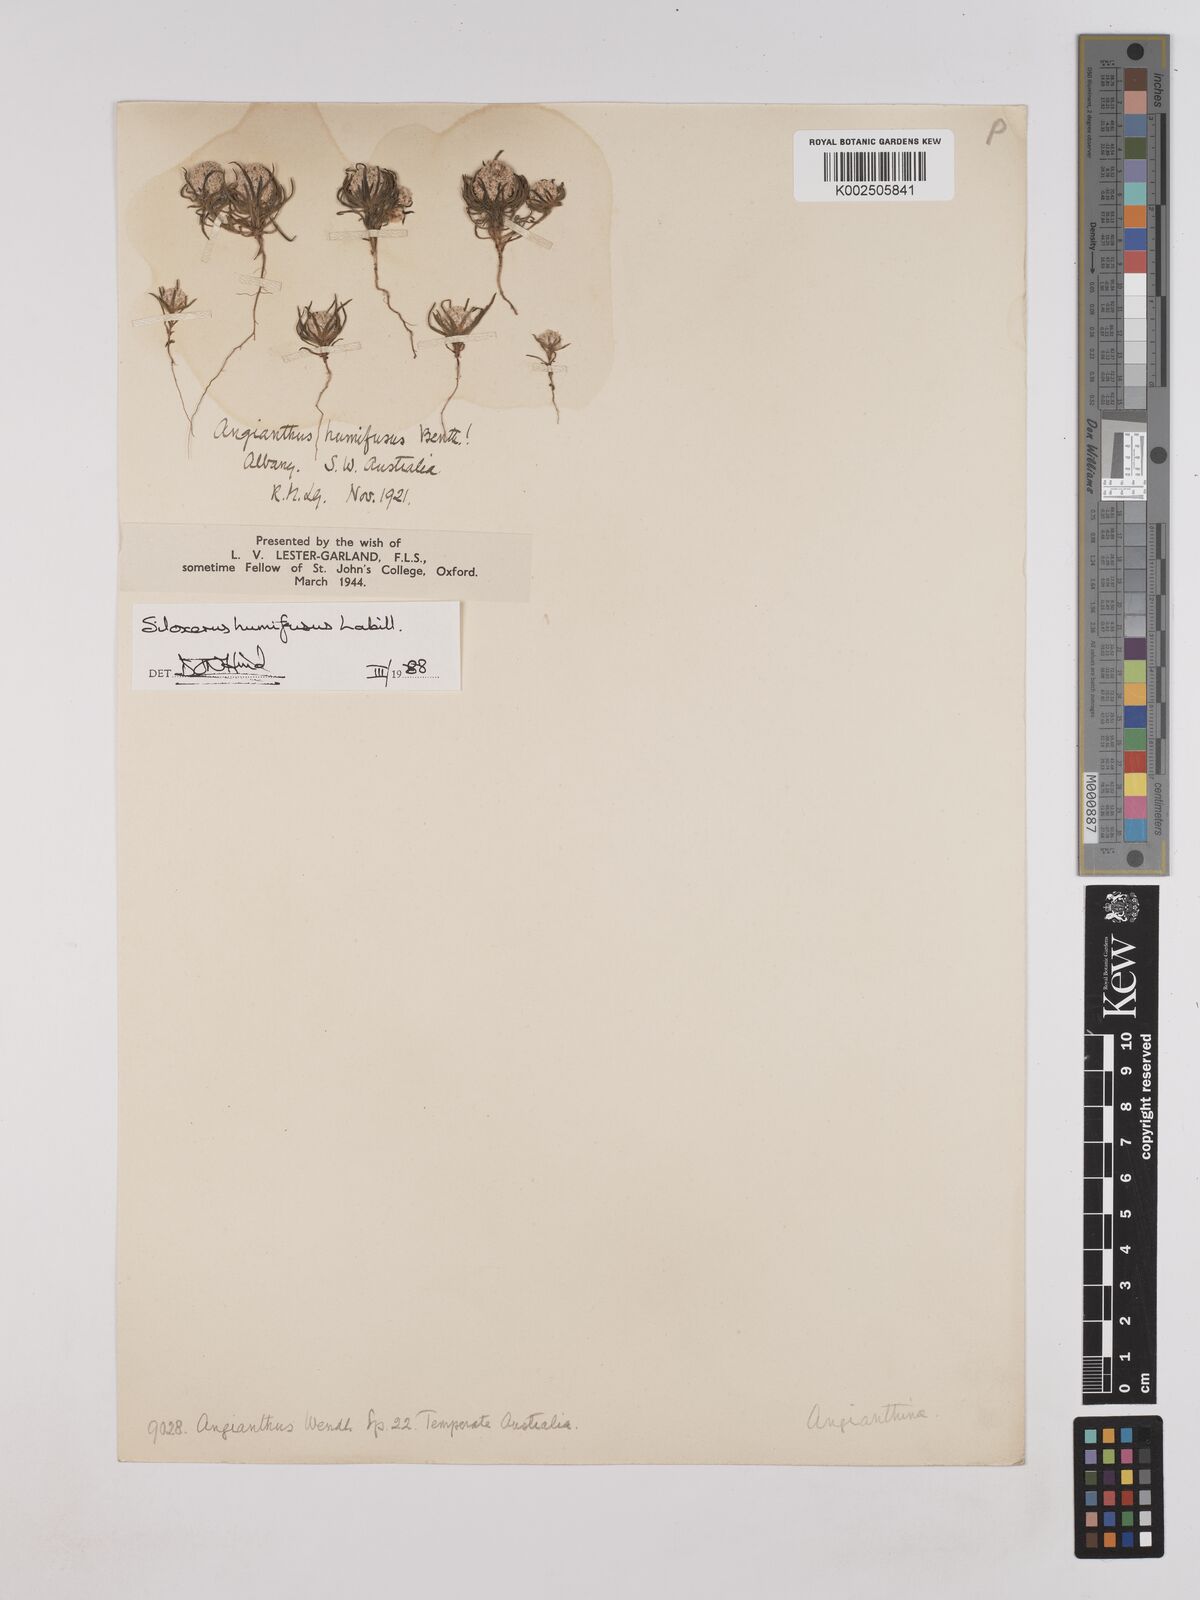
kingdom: Plantae
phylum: Tracheophyta
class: Magnoliopsida
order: Asterales
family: Asteraceae
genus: Siloxerus
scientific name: Siloxerus humifusus
